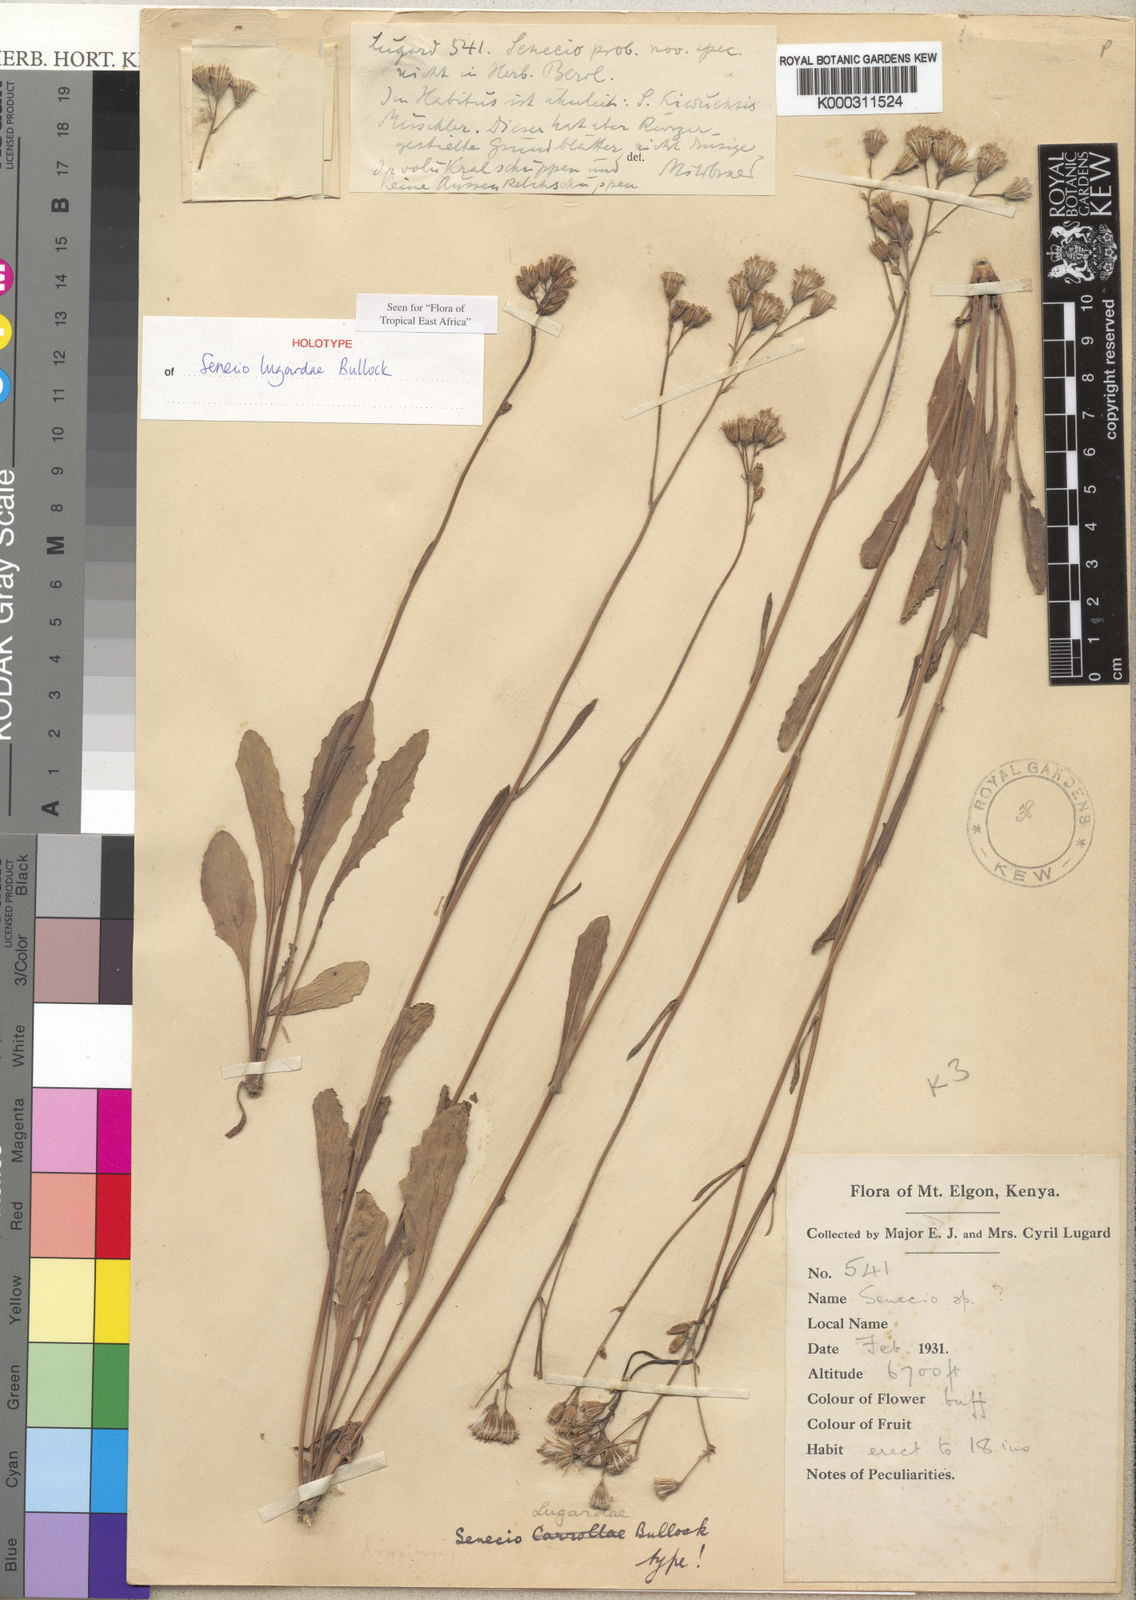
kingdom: Plantae
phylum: Tracheophyta
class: Magnoliopsida
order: Asterales
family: Asteraceae
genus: Senecio
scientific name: Senecio hochstetteri
